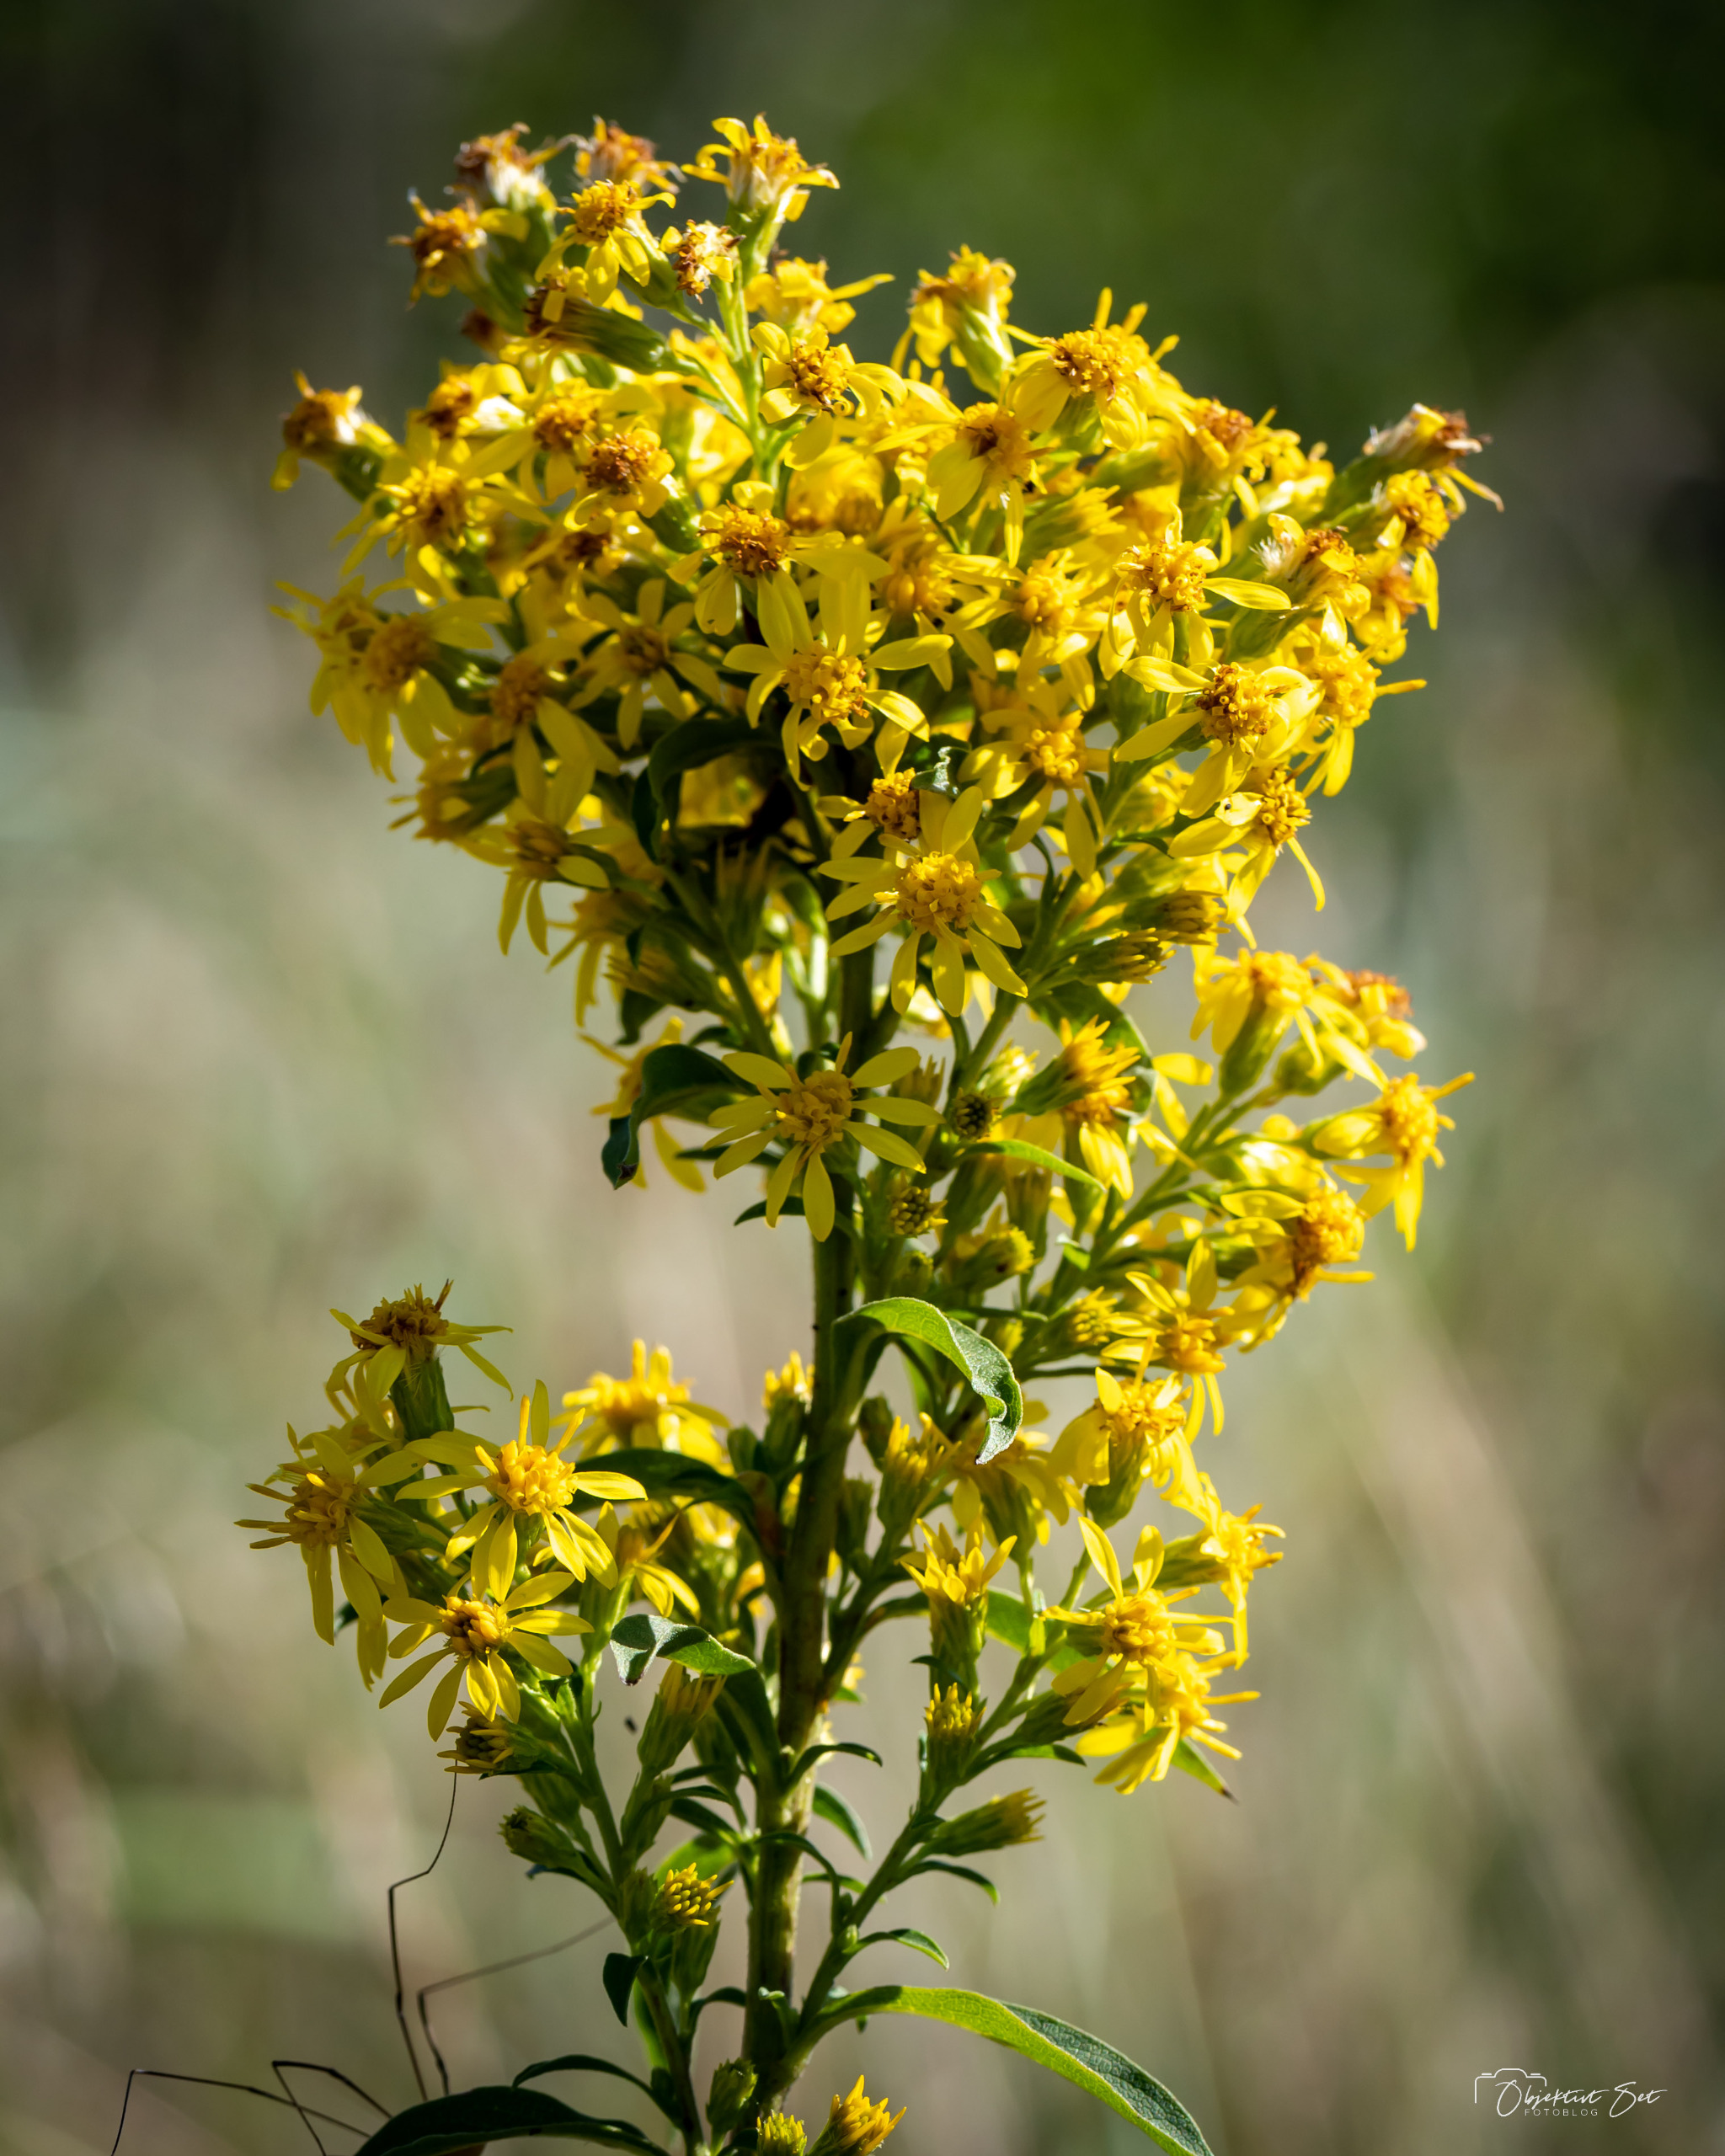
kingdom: Plantae
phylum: Tracheophyta
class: Magnoliopsida
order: Asterales
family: Asteraceae
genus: Solidago
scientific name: Solidago virgaurea
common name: Almindelig gyldenris
